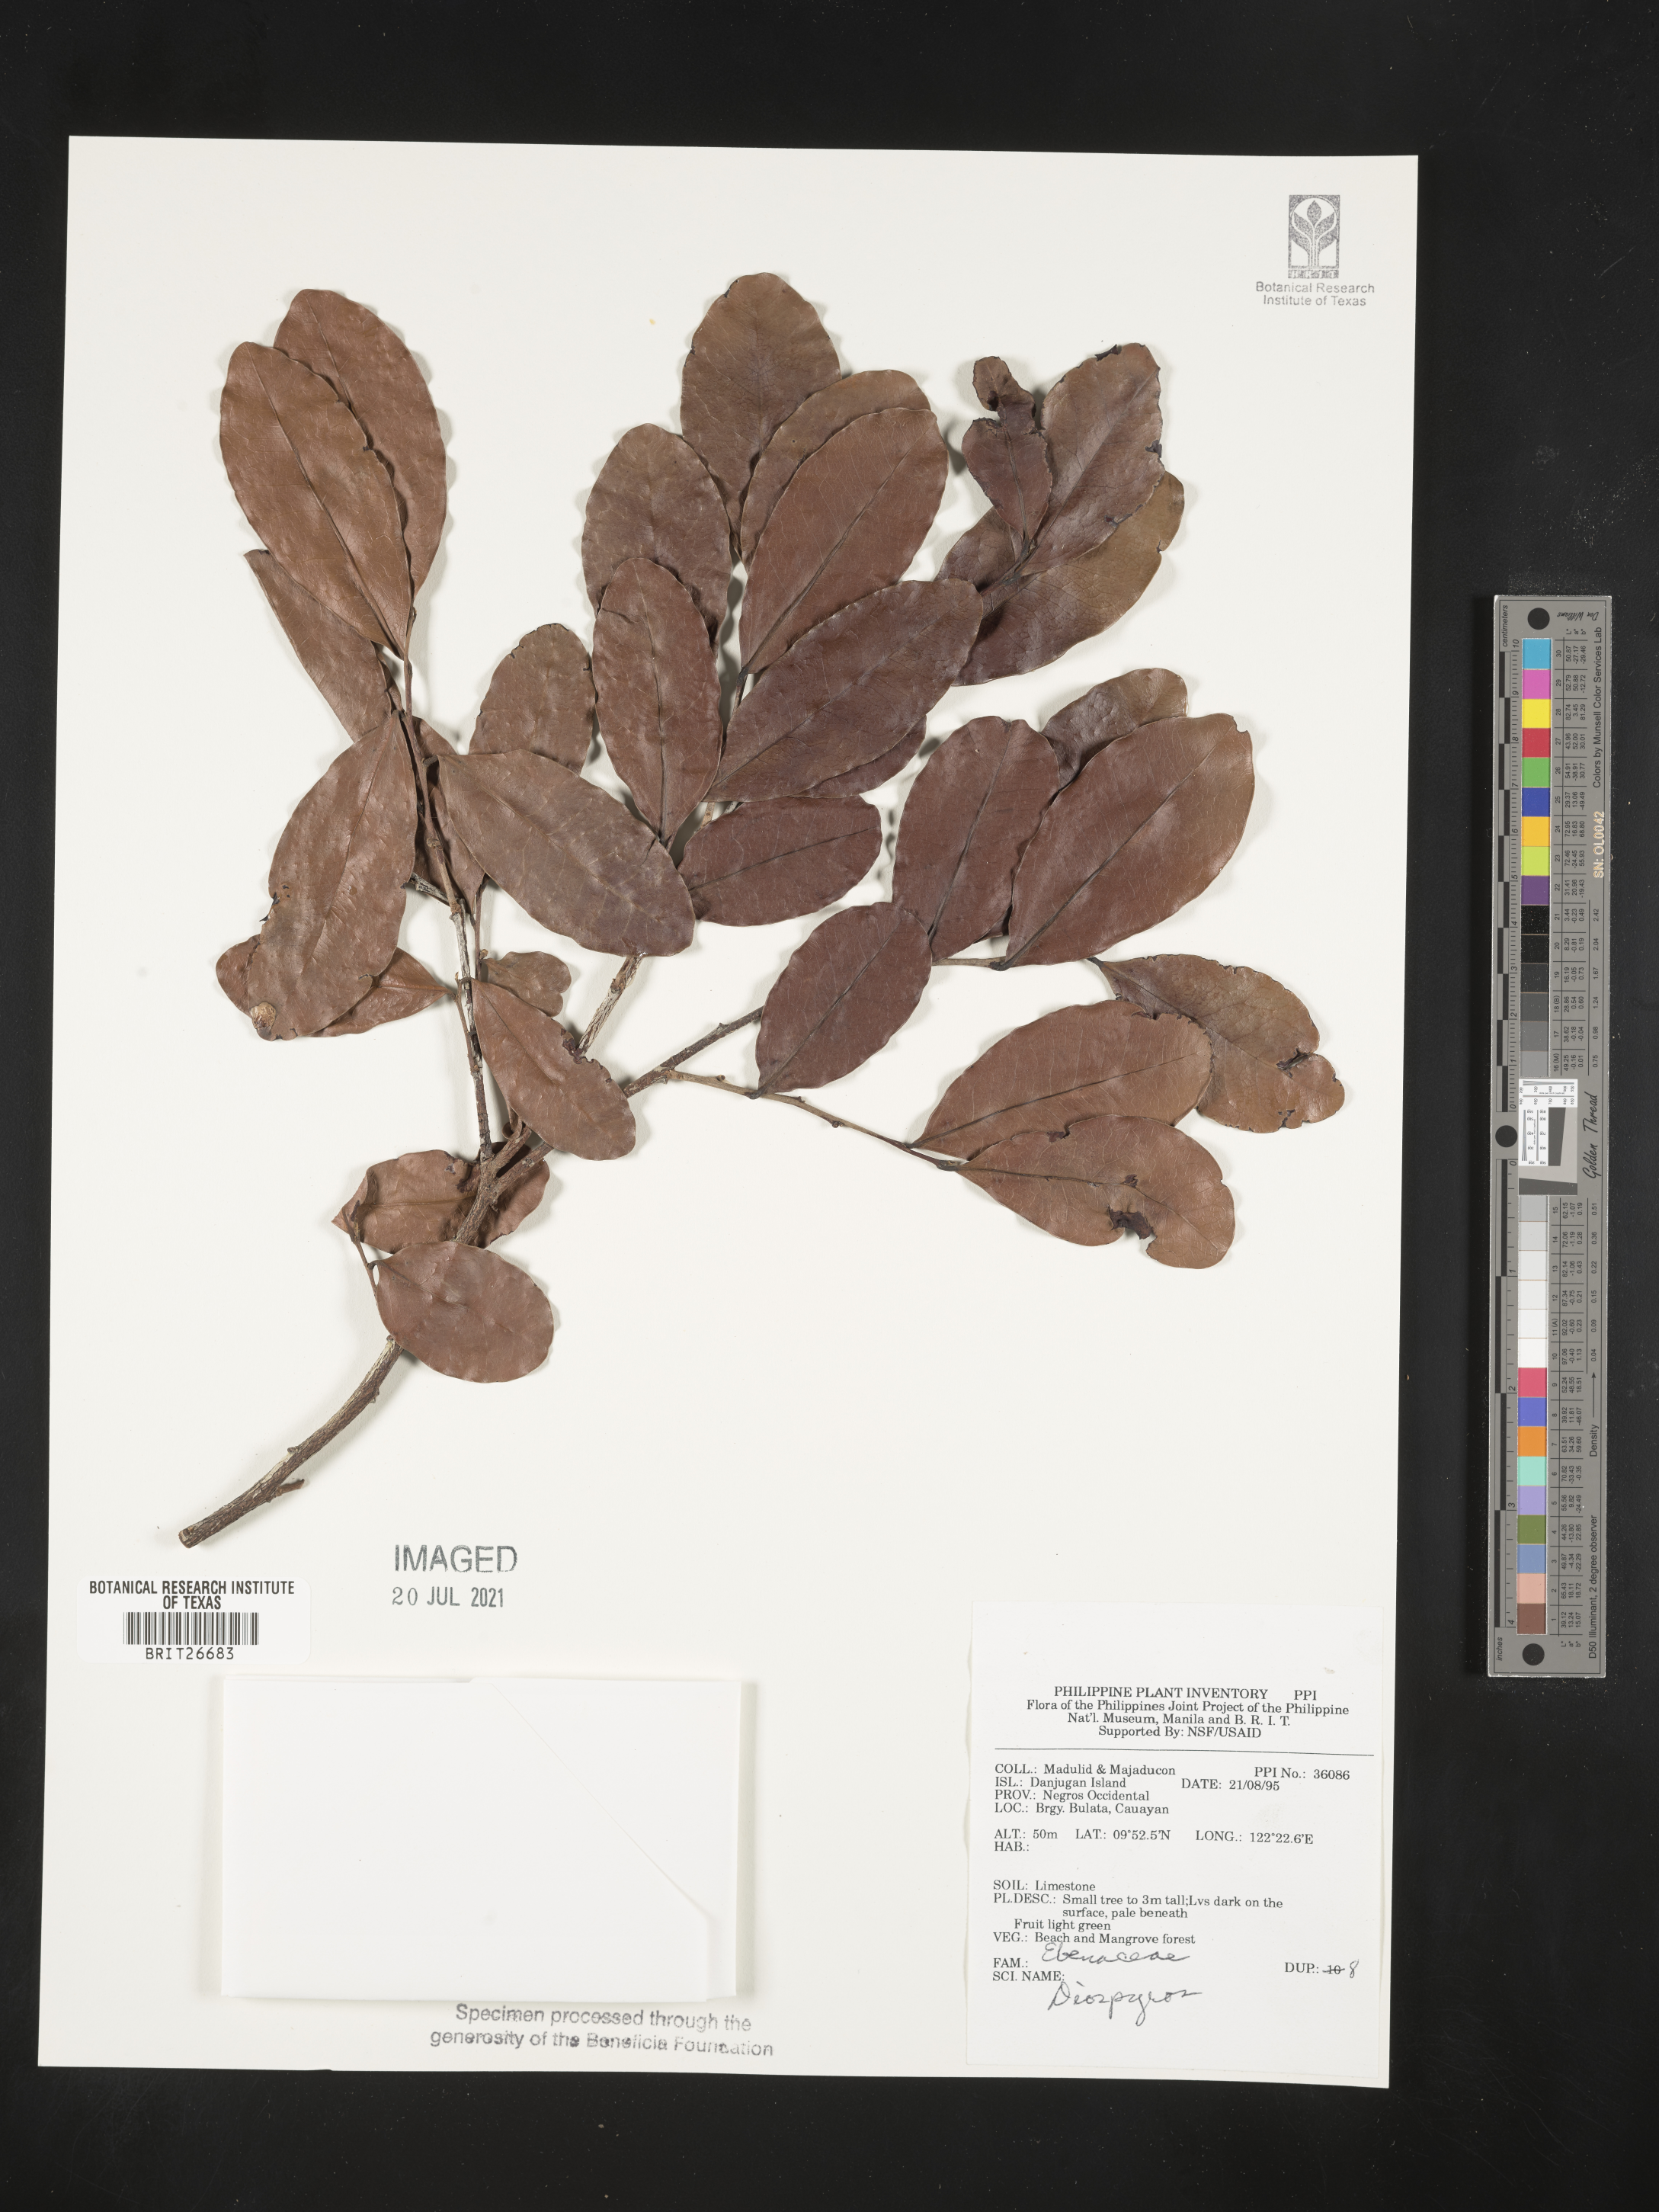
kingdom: Plantae
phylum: Tracheophyta
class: Magnoliopsida
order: Ericales
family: Ebenaceae
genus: Diospyros
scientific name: Diospyros
